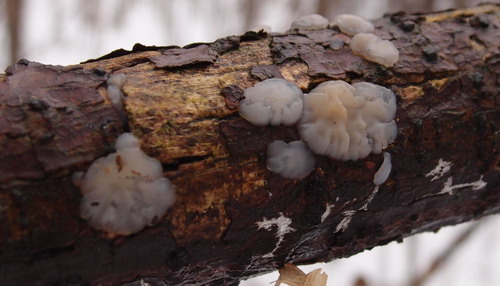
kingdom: Fungi
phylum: Basidiomycota
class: Agaricomycetes
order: Auriculariales
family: Auriculariaceae
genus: Exidia
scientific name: Exidia thuretiana
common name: hvidlig bævretop
